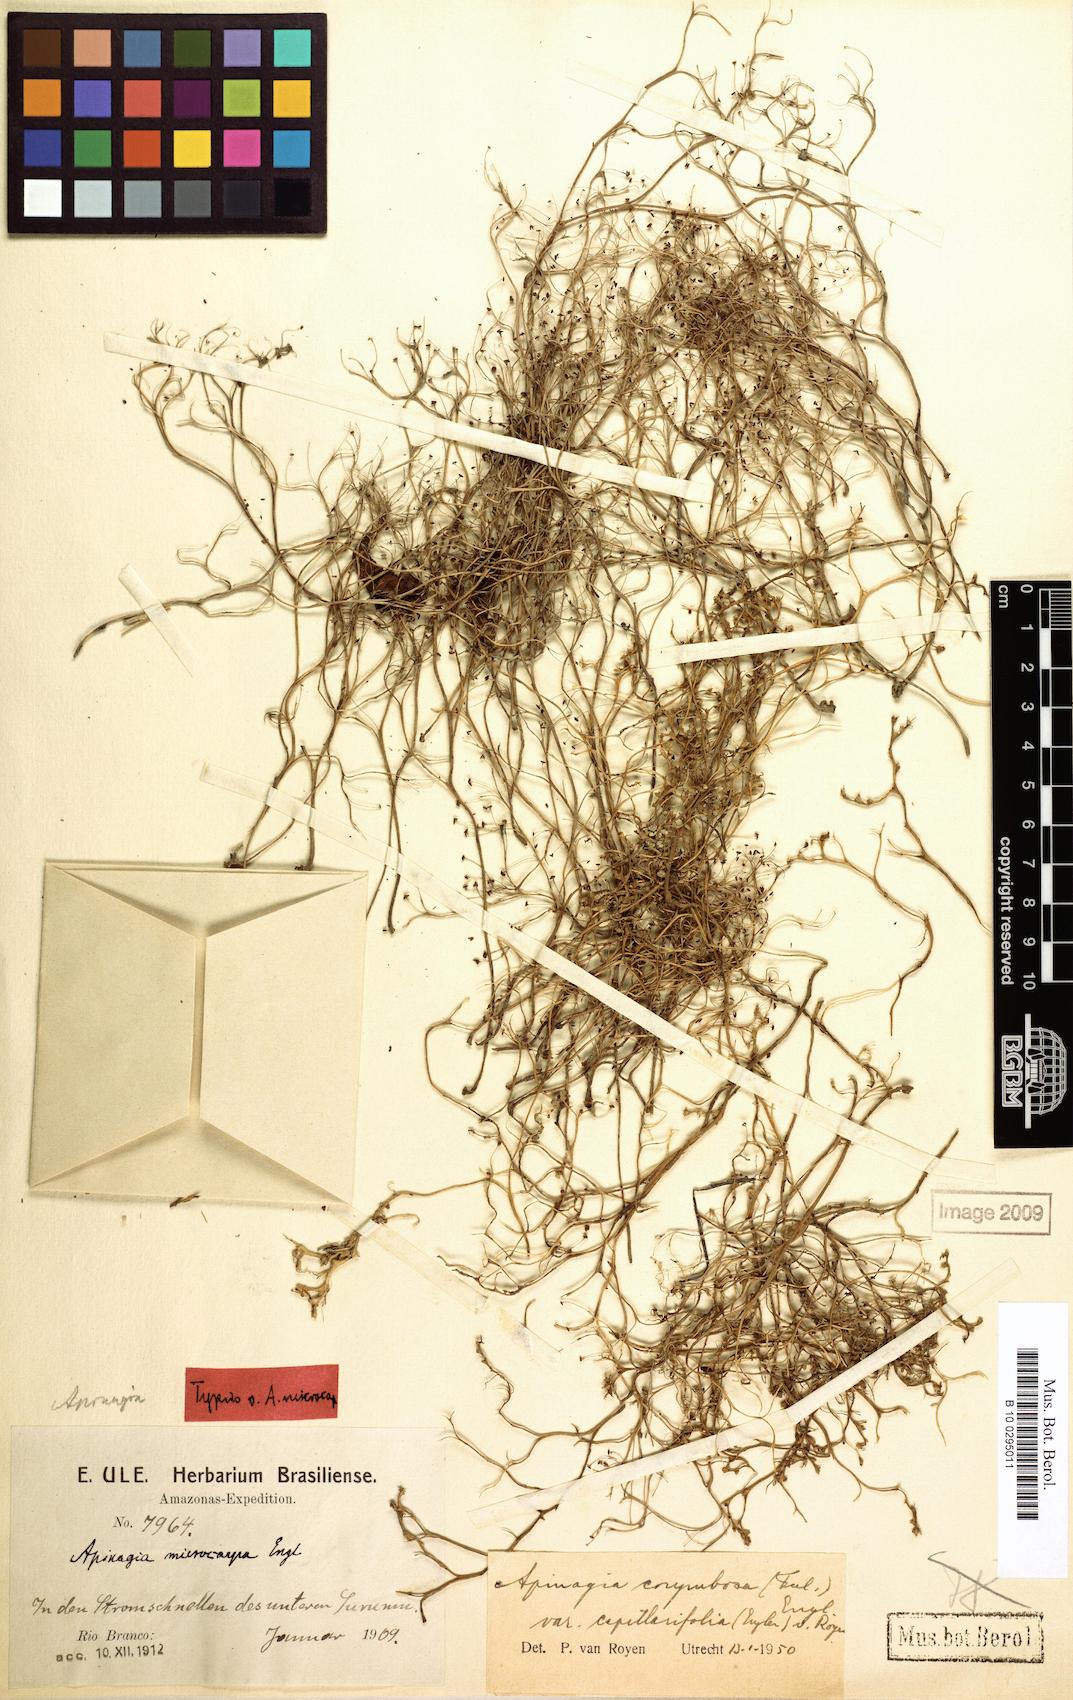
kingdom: Plantae
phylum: Tracheophyta
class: Magnoliopsida
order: Malpighiales
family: Podostemaceae
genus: Apinagia
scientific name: Apinagia corymbosa
